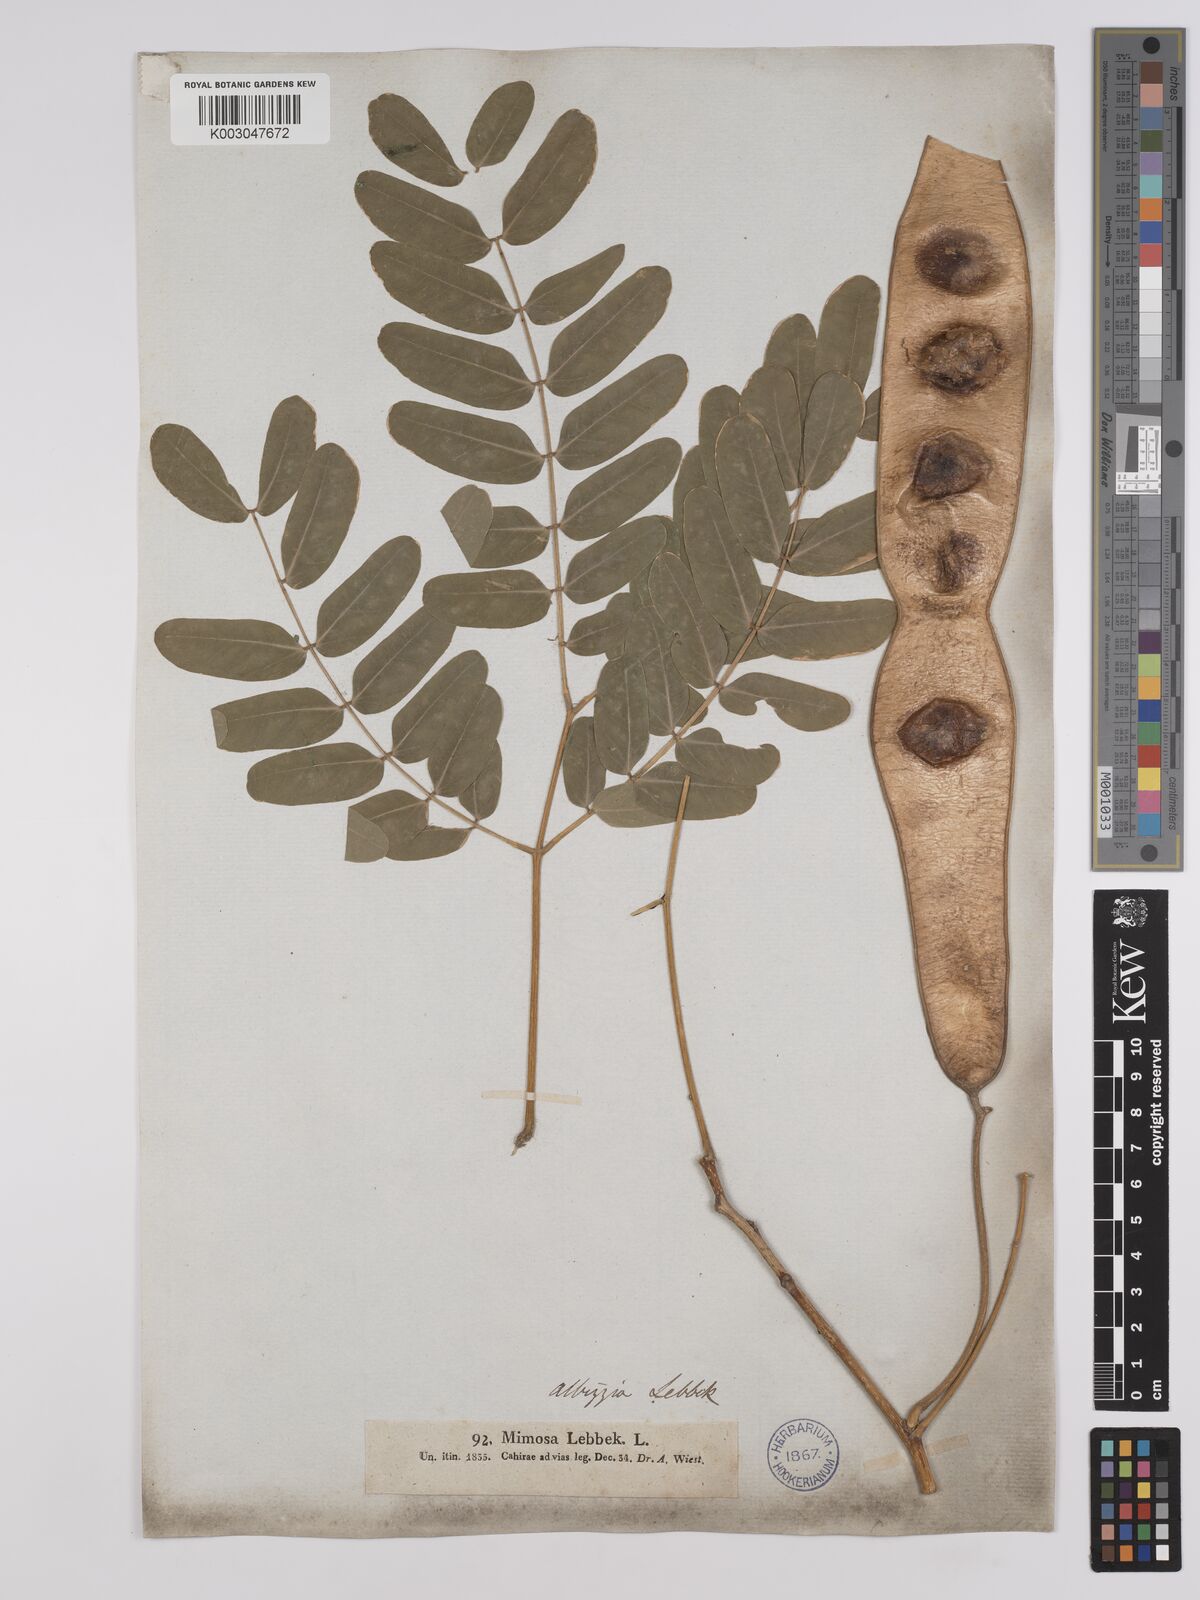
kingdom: Plantae
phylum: Tracheophyta
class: Magnoliopsida
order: Fabales
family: Fabaceae
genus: Albizia
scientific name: Albizia lebbeck
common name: Woman's tongue
